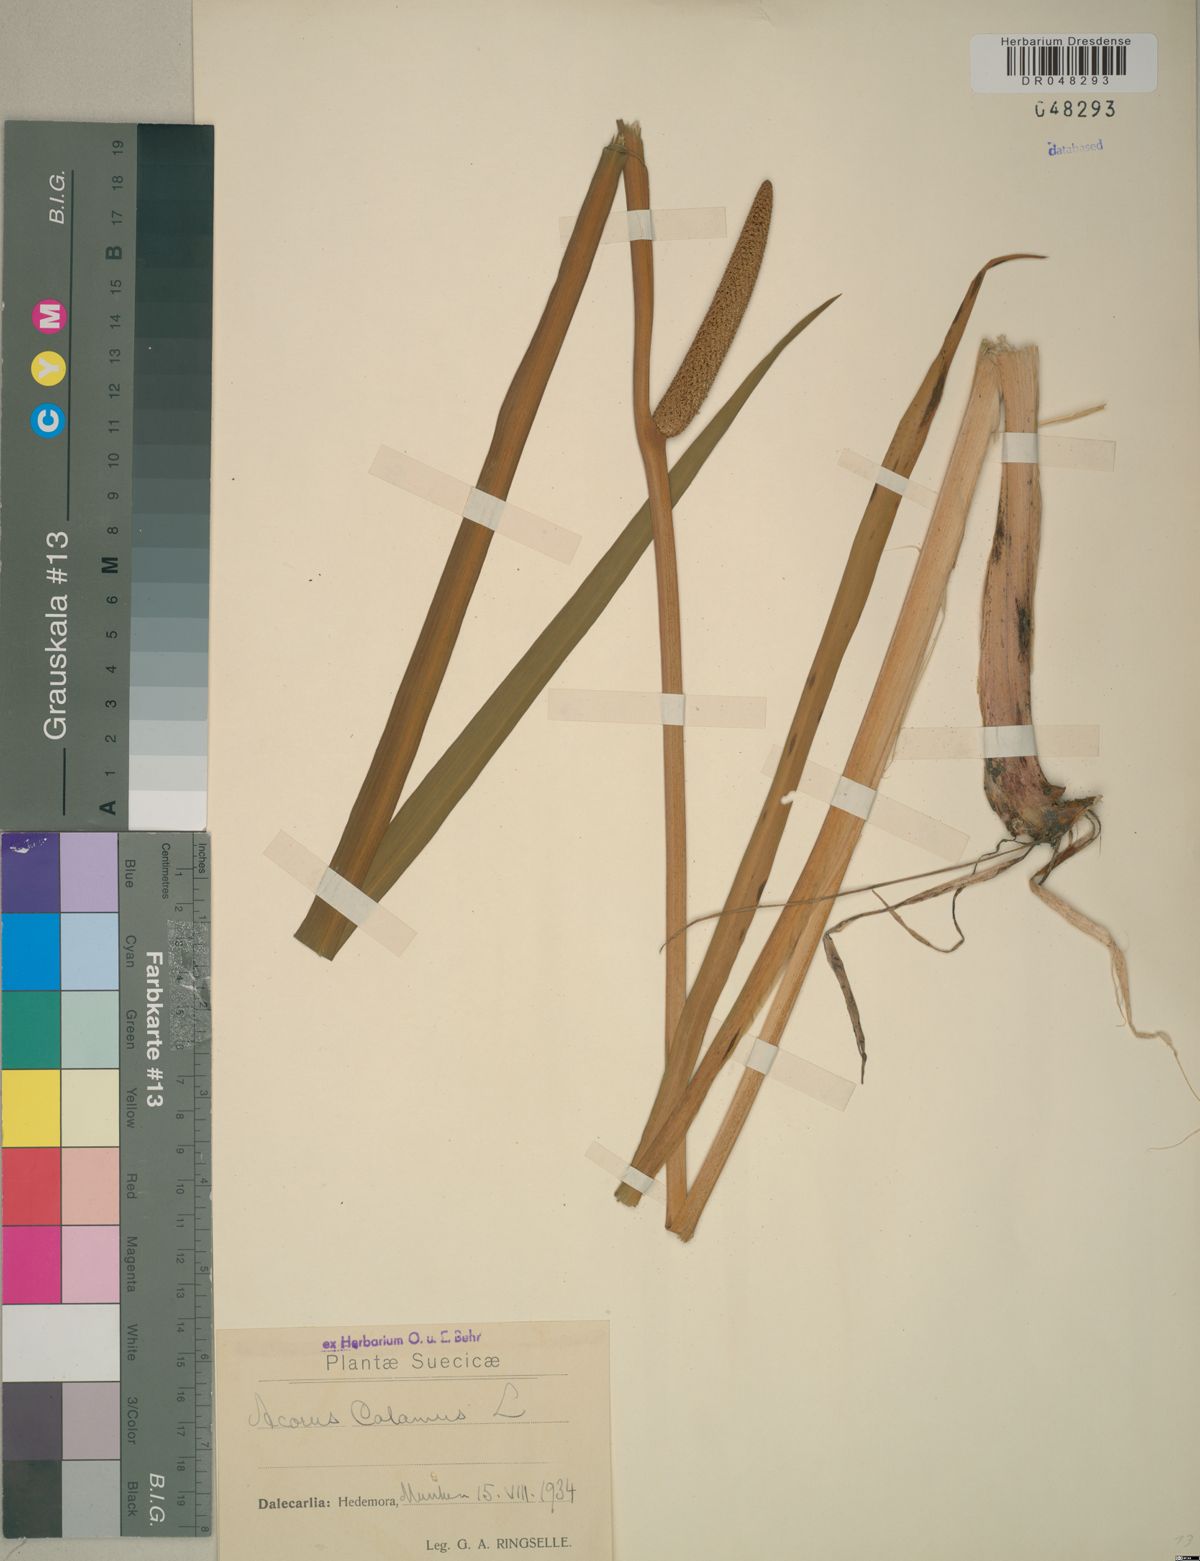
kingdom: Plantae
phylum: Tracheophyta
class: Liliopsida
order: Acorales
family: Acoraceae
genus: Acorus
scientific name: Acorus calamus
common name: Sweet-flag
